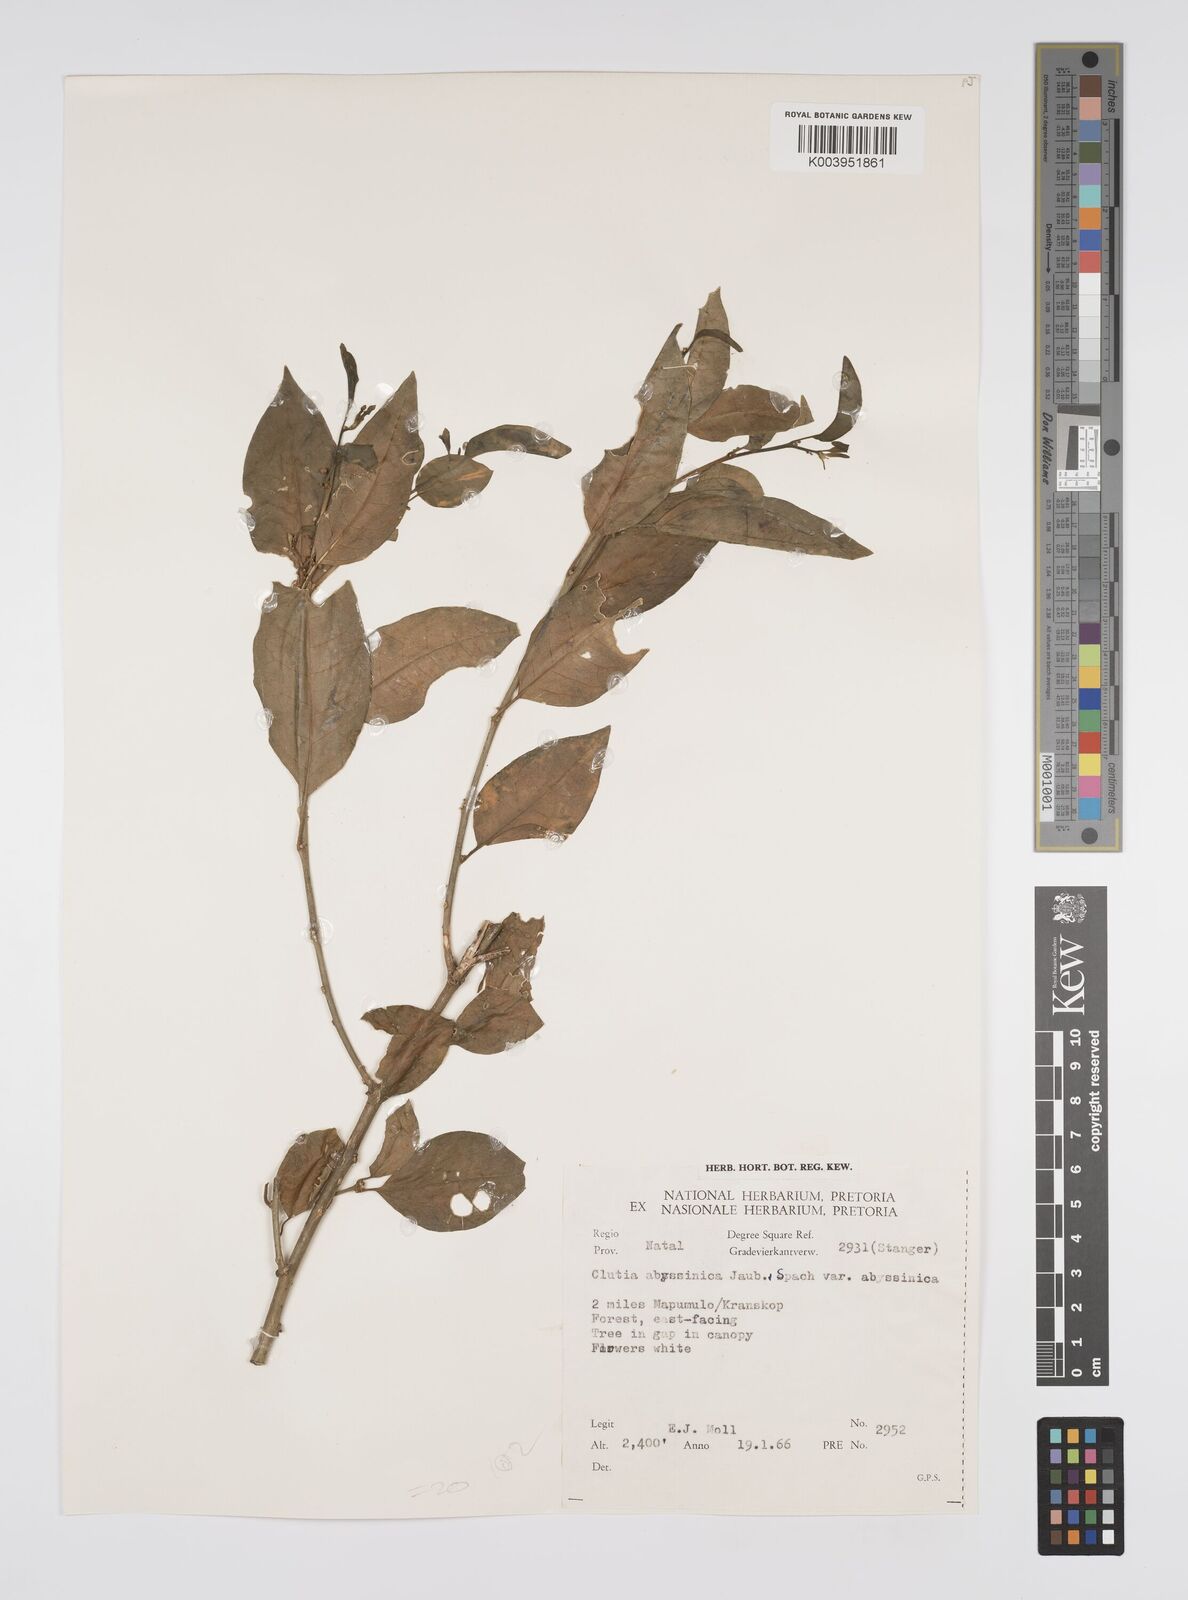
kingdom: Plantae
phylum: Tracheophyta
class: Magnoliopsida
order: Malpighiales
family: Peraceae
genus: Clutia
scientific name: Clutia abyssinica
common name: Large lightning bush
